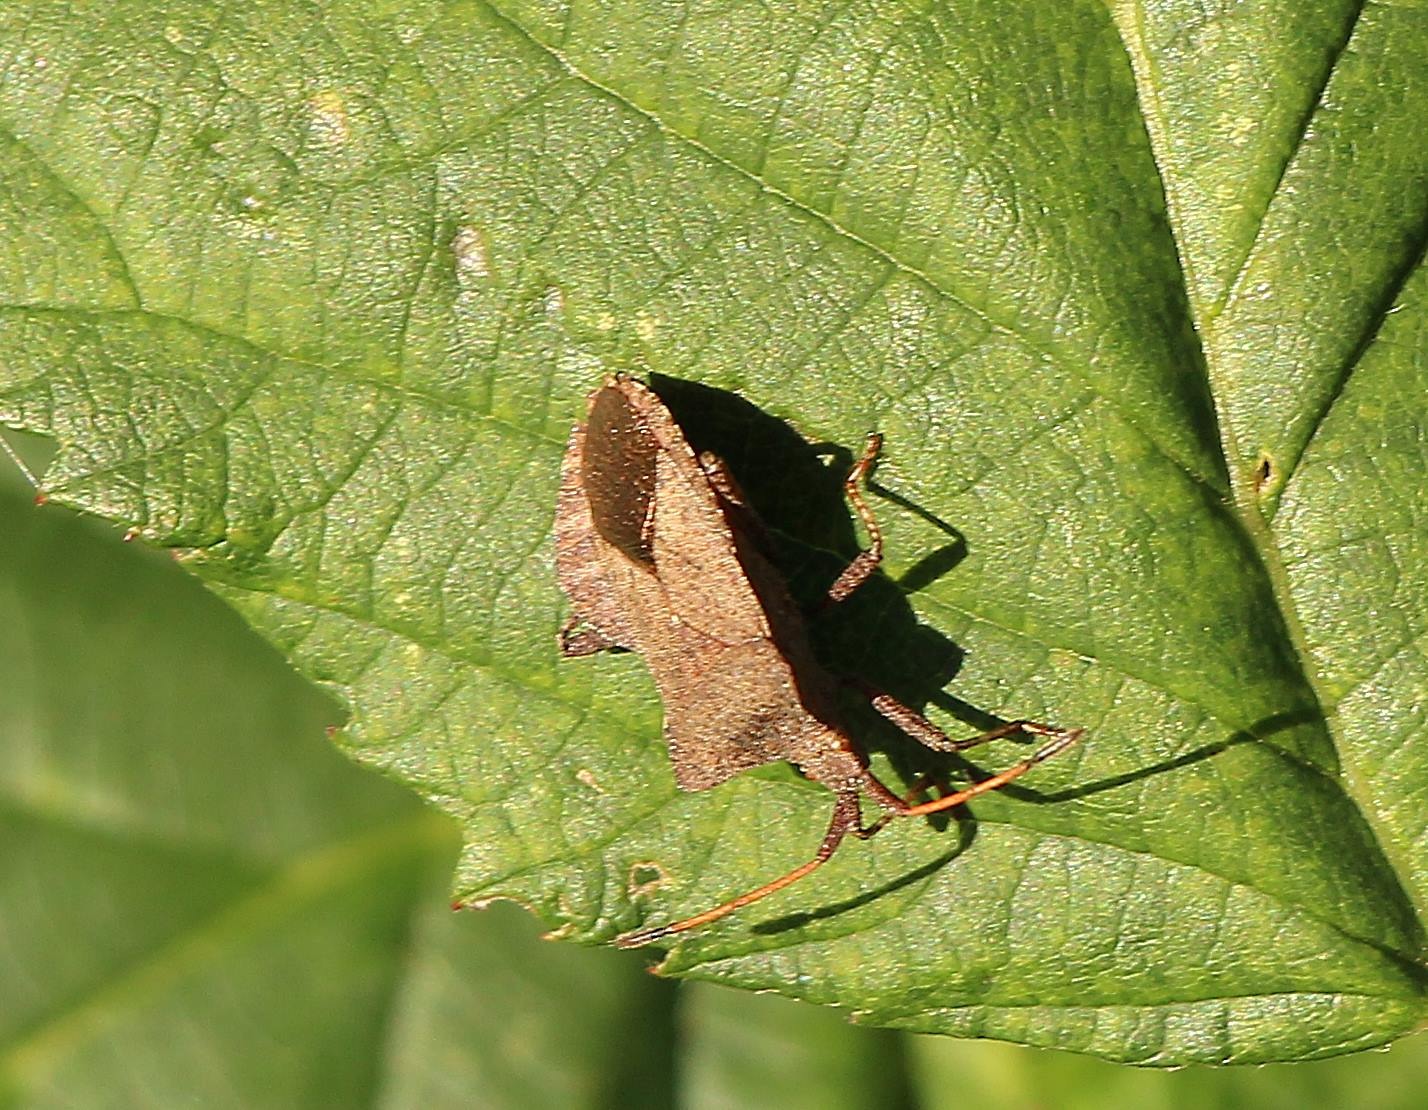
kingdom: Animalia
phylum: Arthropoda
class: Insecta
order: Hemiptera
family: Coreidae
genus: Coreus
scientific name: Coreus marginatus
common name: Skræppetæge
